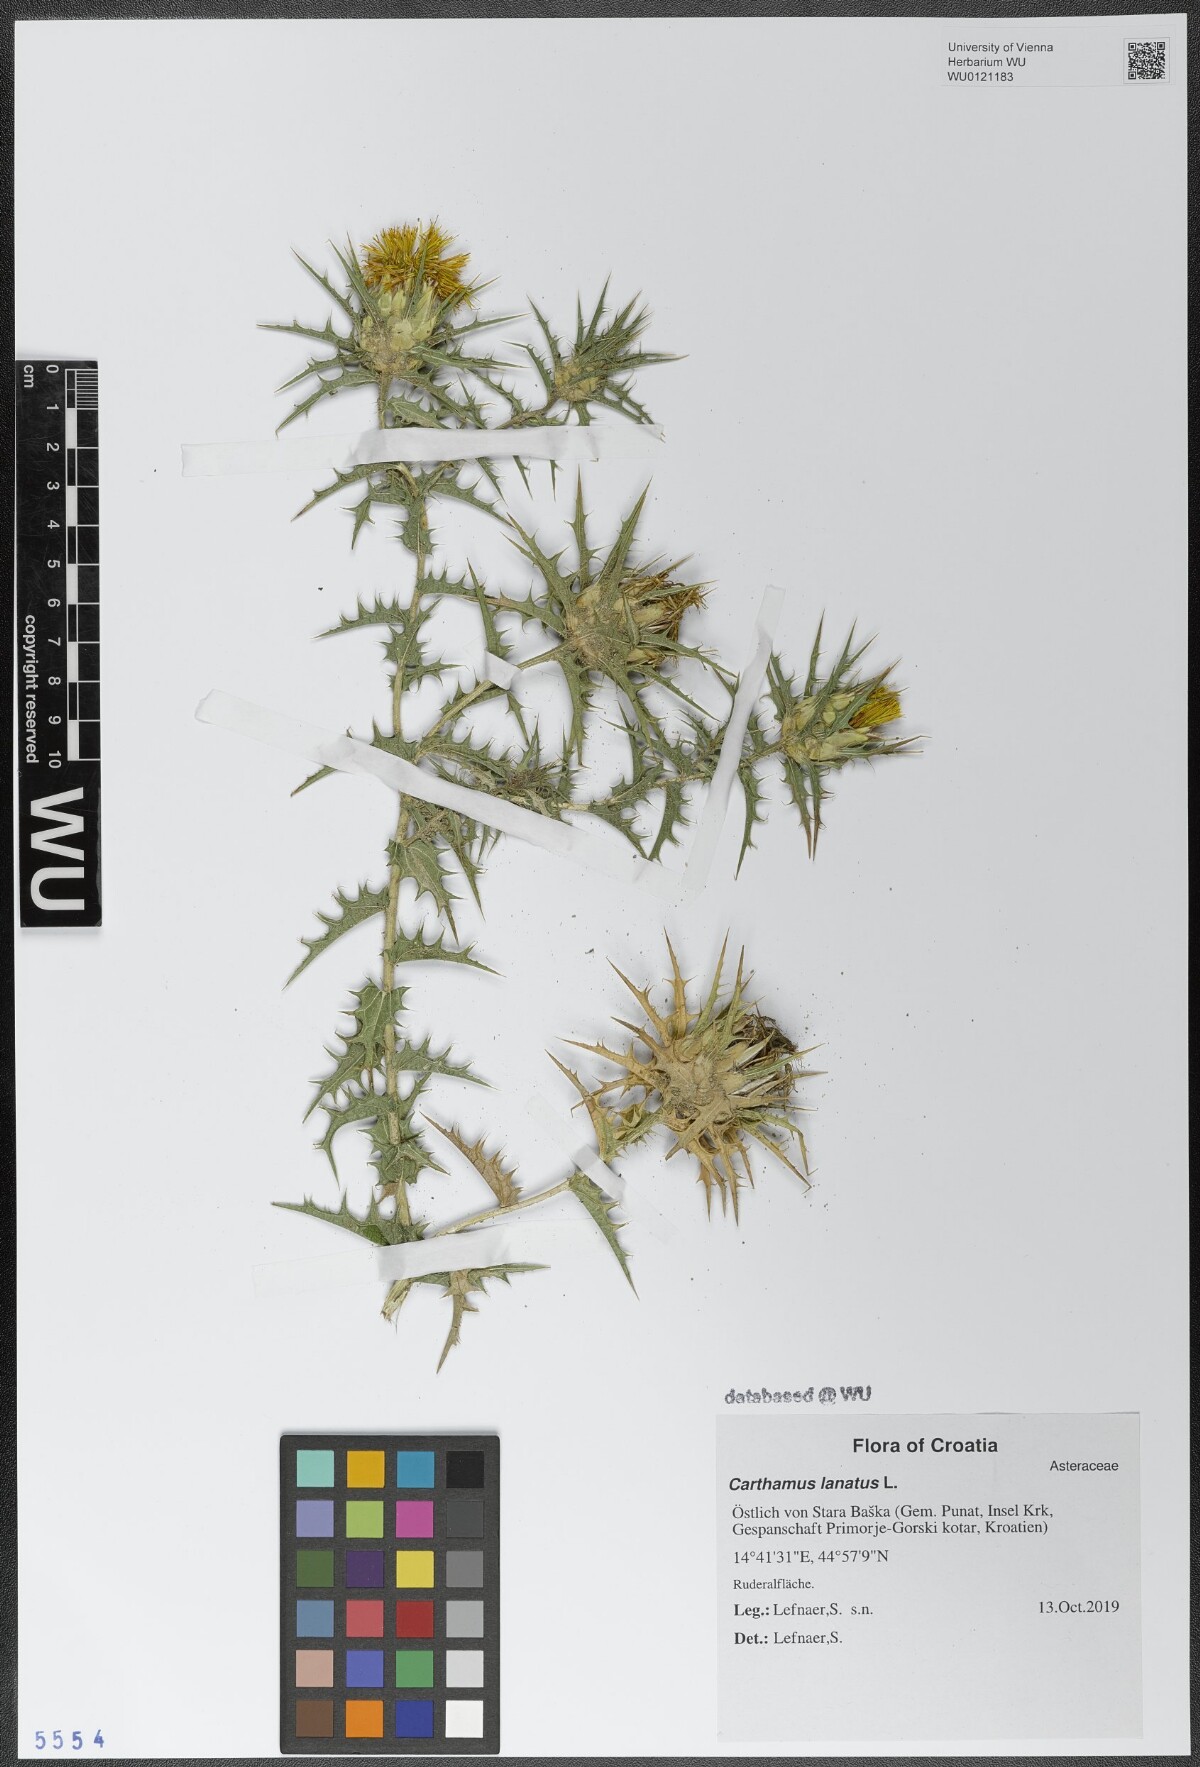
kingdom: Plantae
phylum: Tracheophyta
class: Magnoliopsida
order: Asterales
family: Asteraceae
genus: Carthamus
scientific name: Carthamus lanatus
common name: Downy safflower
